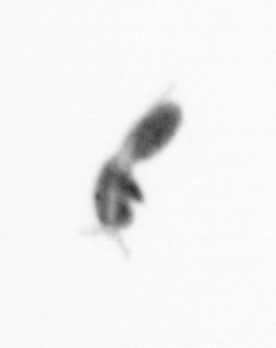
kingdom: Animalia
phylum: Arthropoda
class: Copepoda
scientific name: Copepoda
